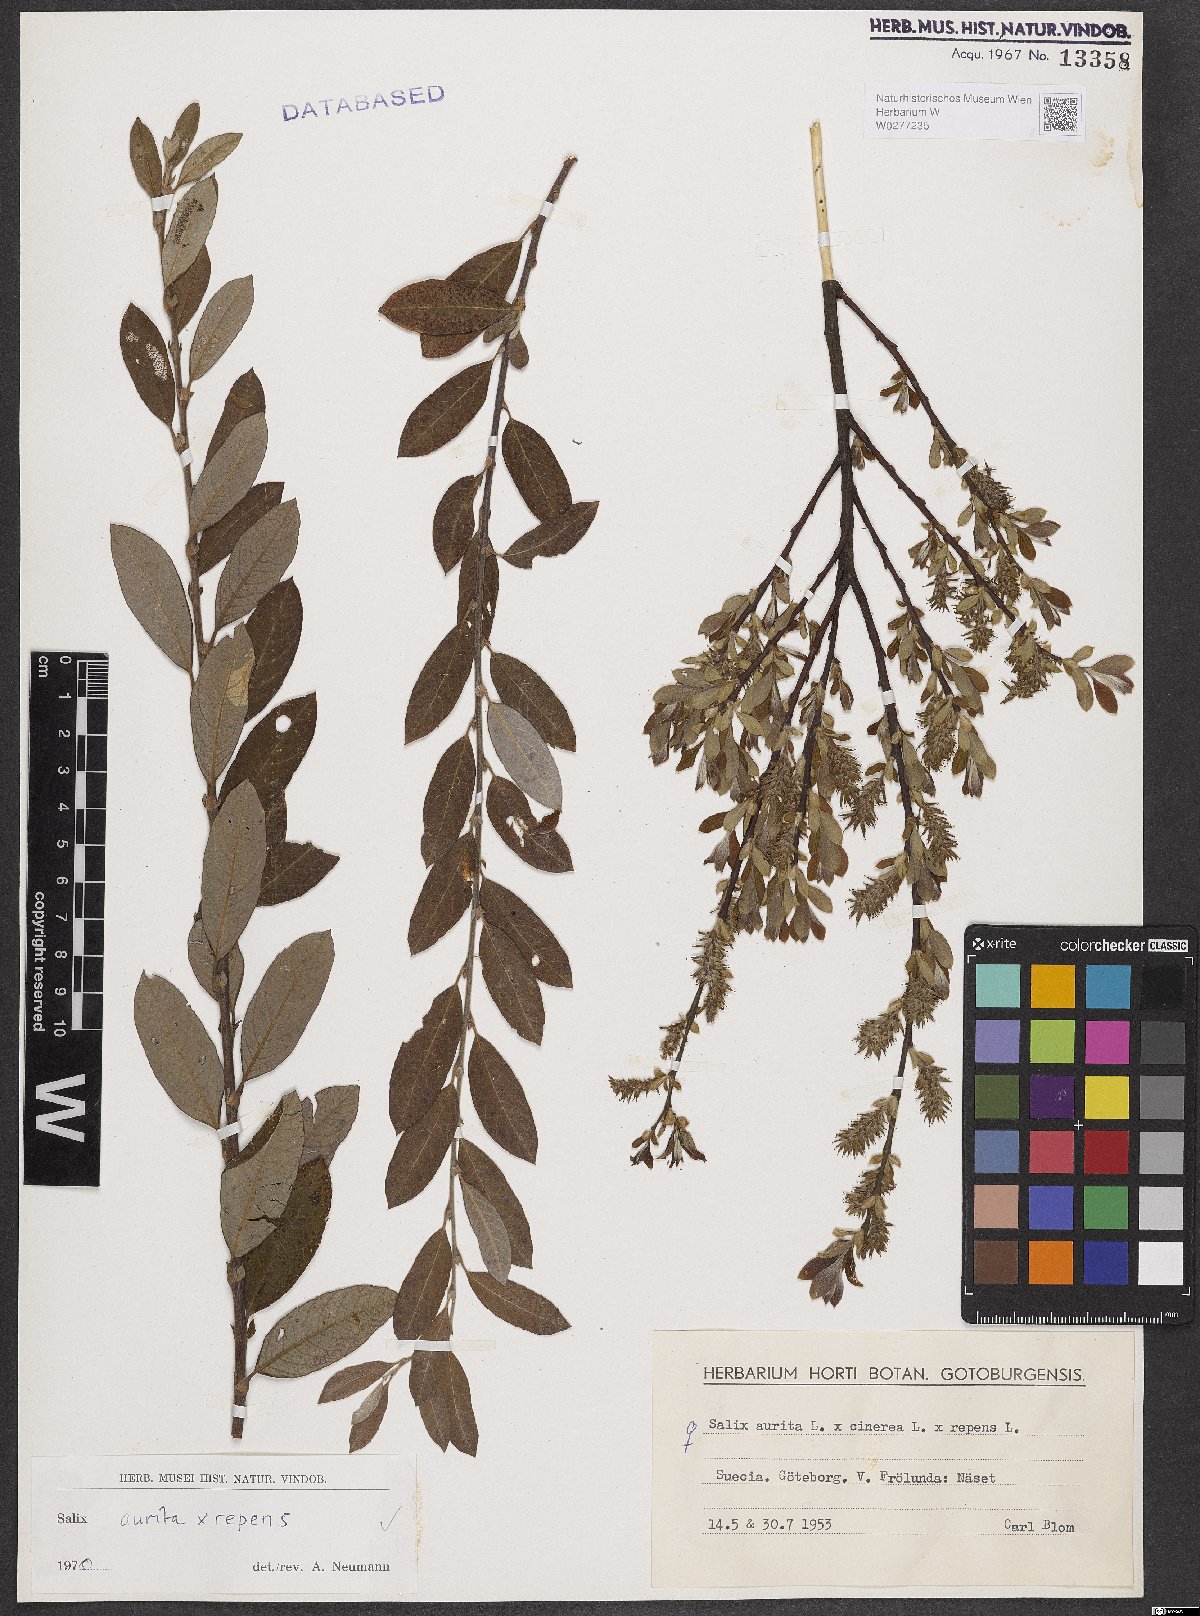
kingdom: Plantae
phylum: Tracheophyta
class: Magnoliopsida
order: Malpighiales
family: Salicaceae
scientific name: Salicaceae
